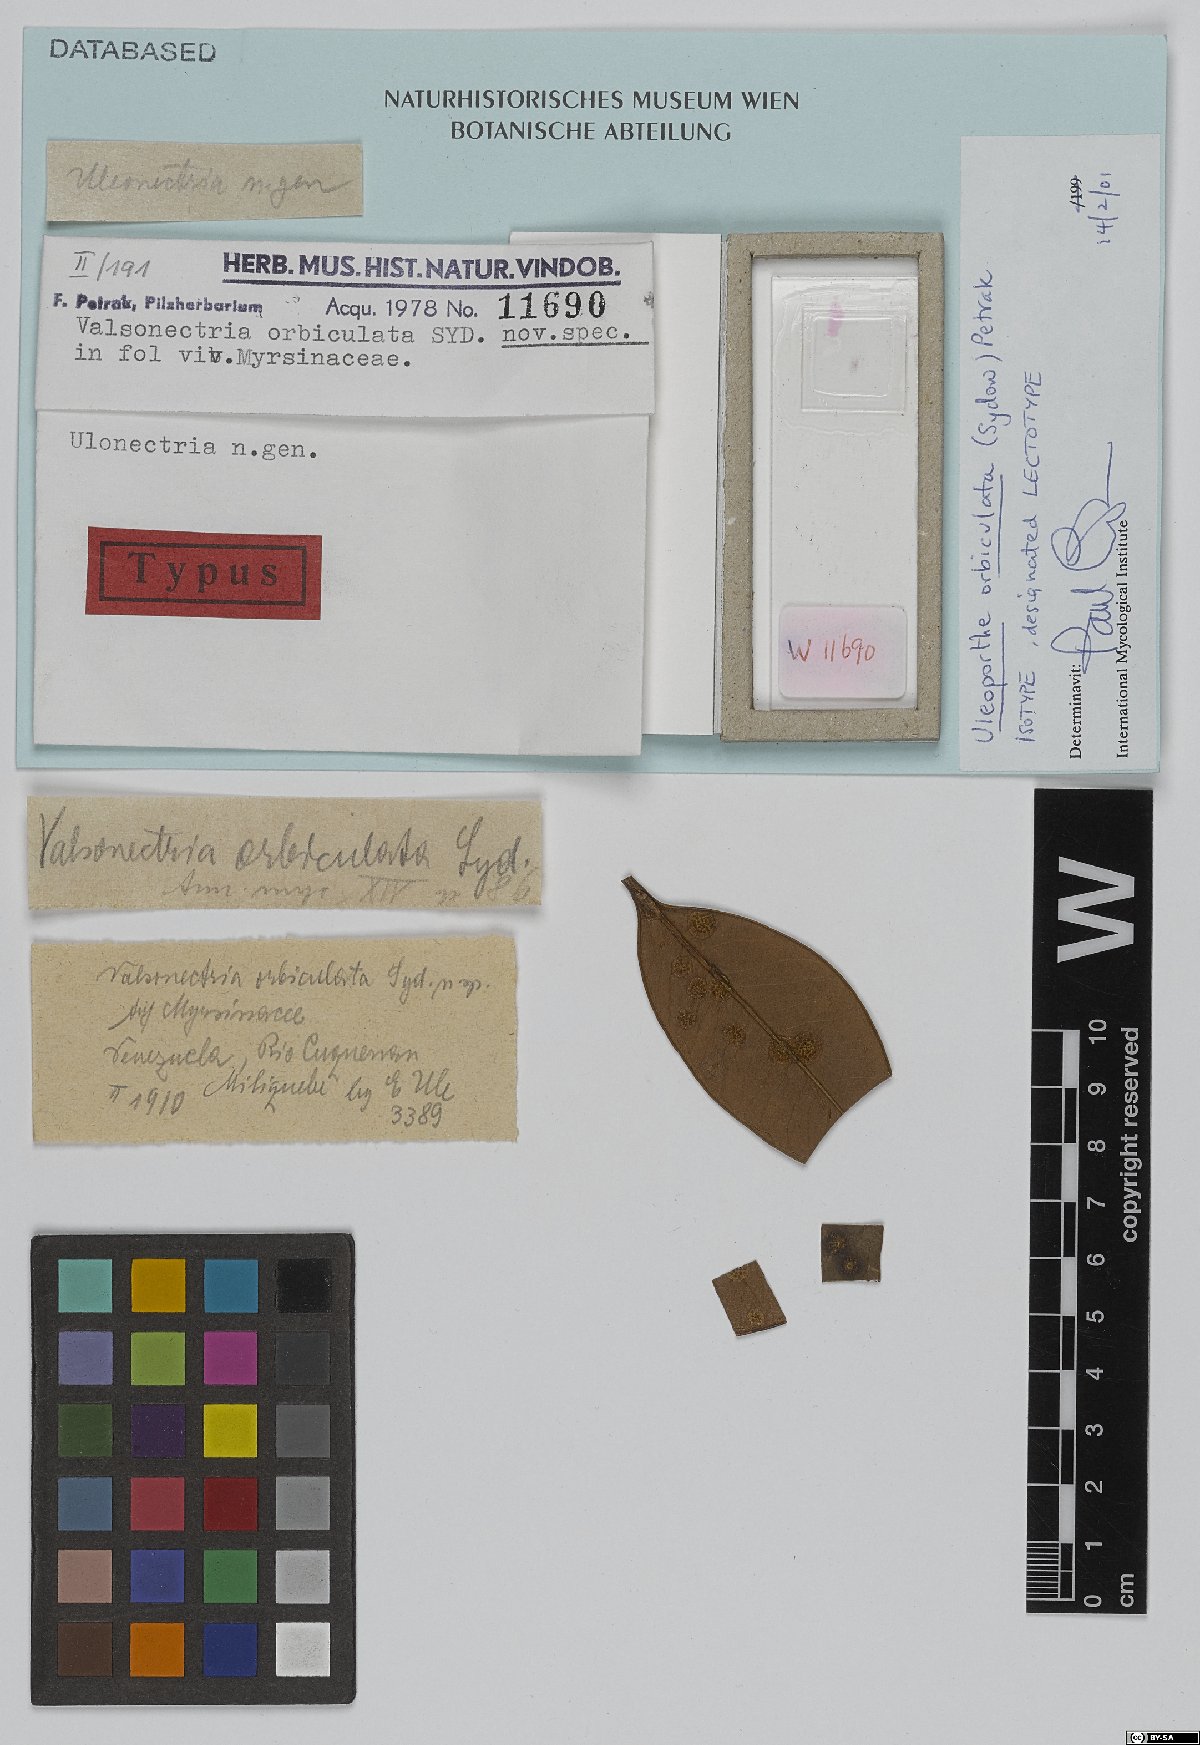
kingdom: Fungi
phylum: Ascomycota
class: Sordariomycetes
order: Diaporthales
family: Sydowiellaceae
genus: Uleoporthe
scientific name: Uleoporthe orbiculata
